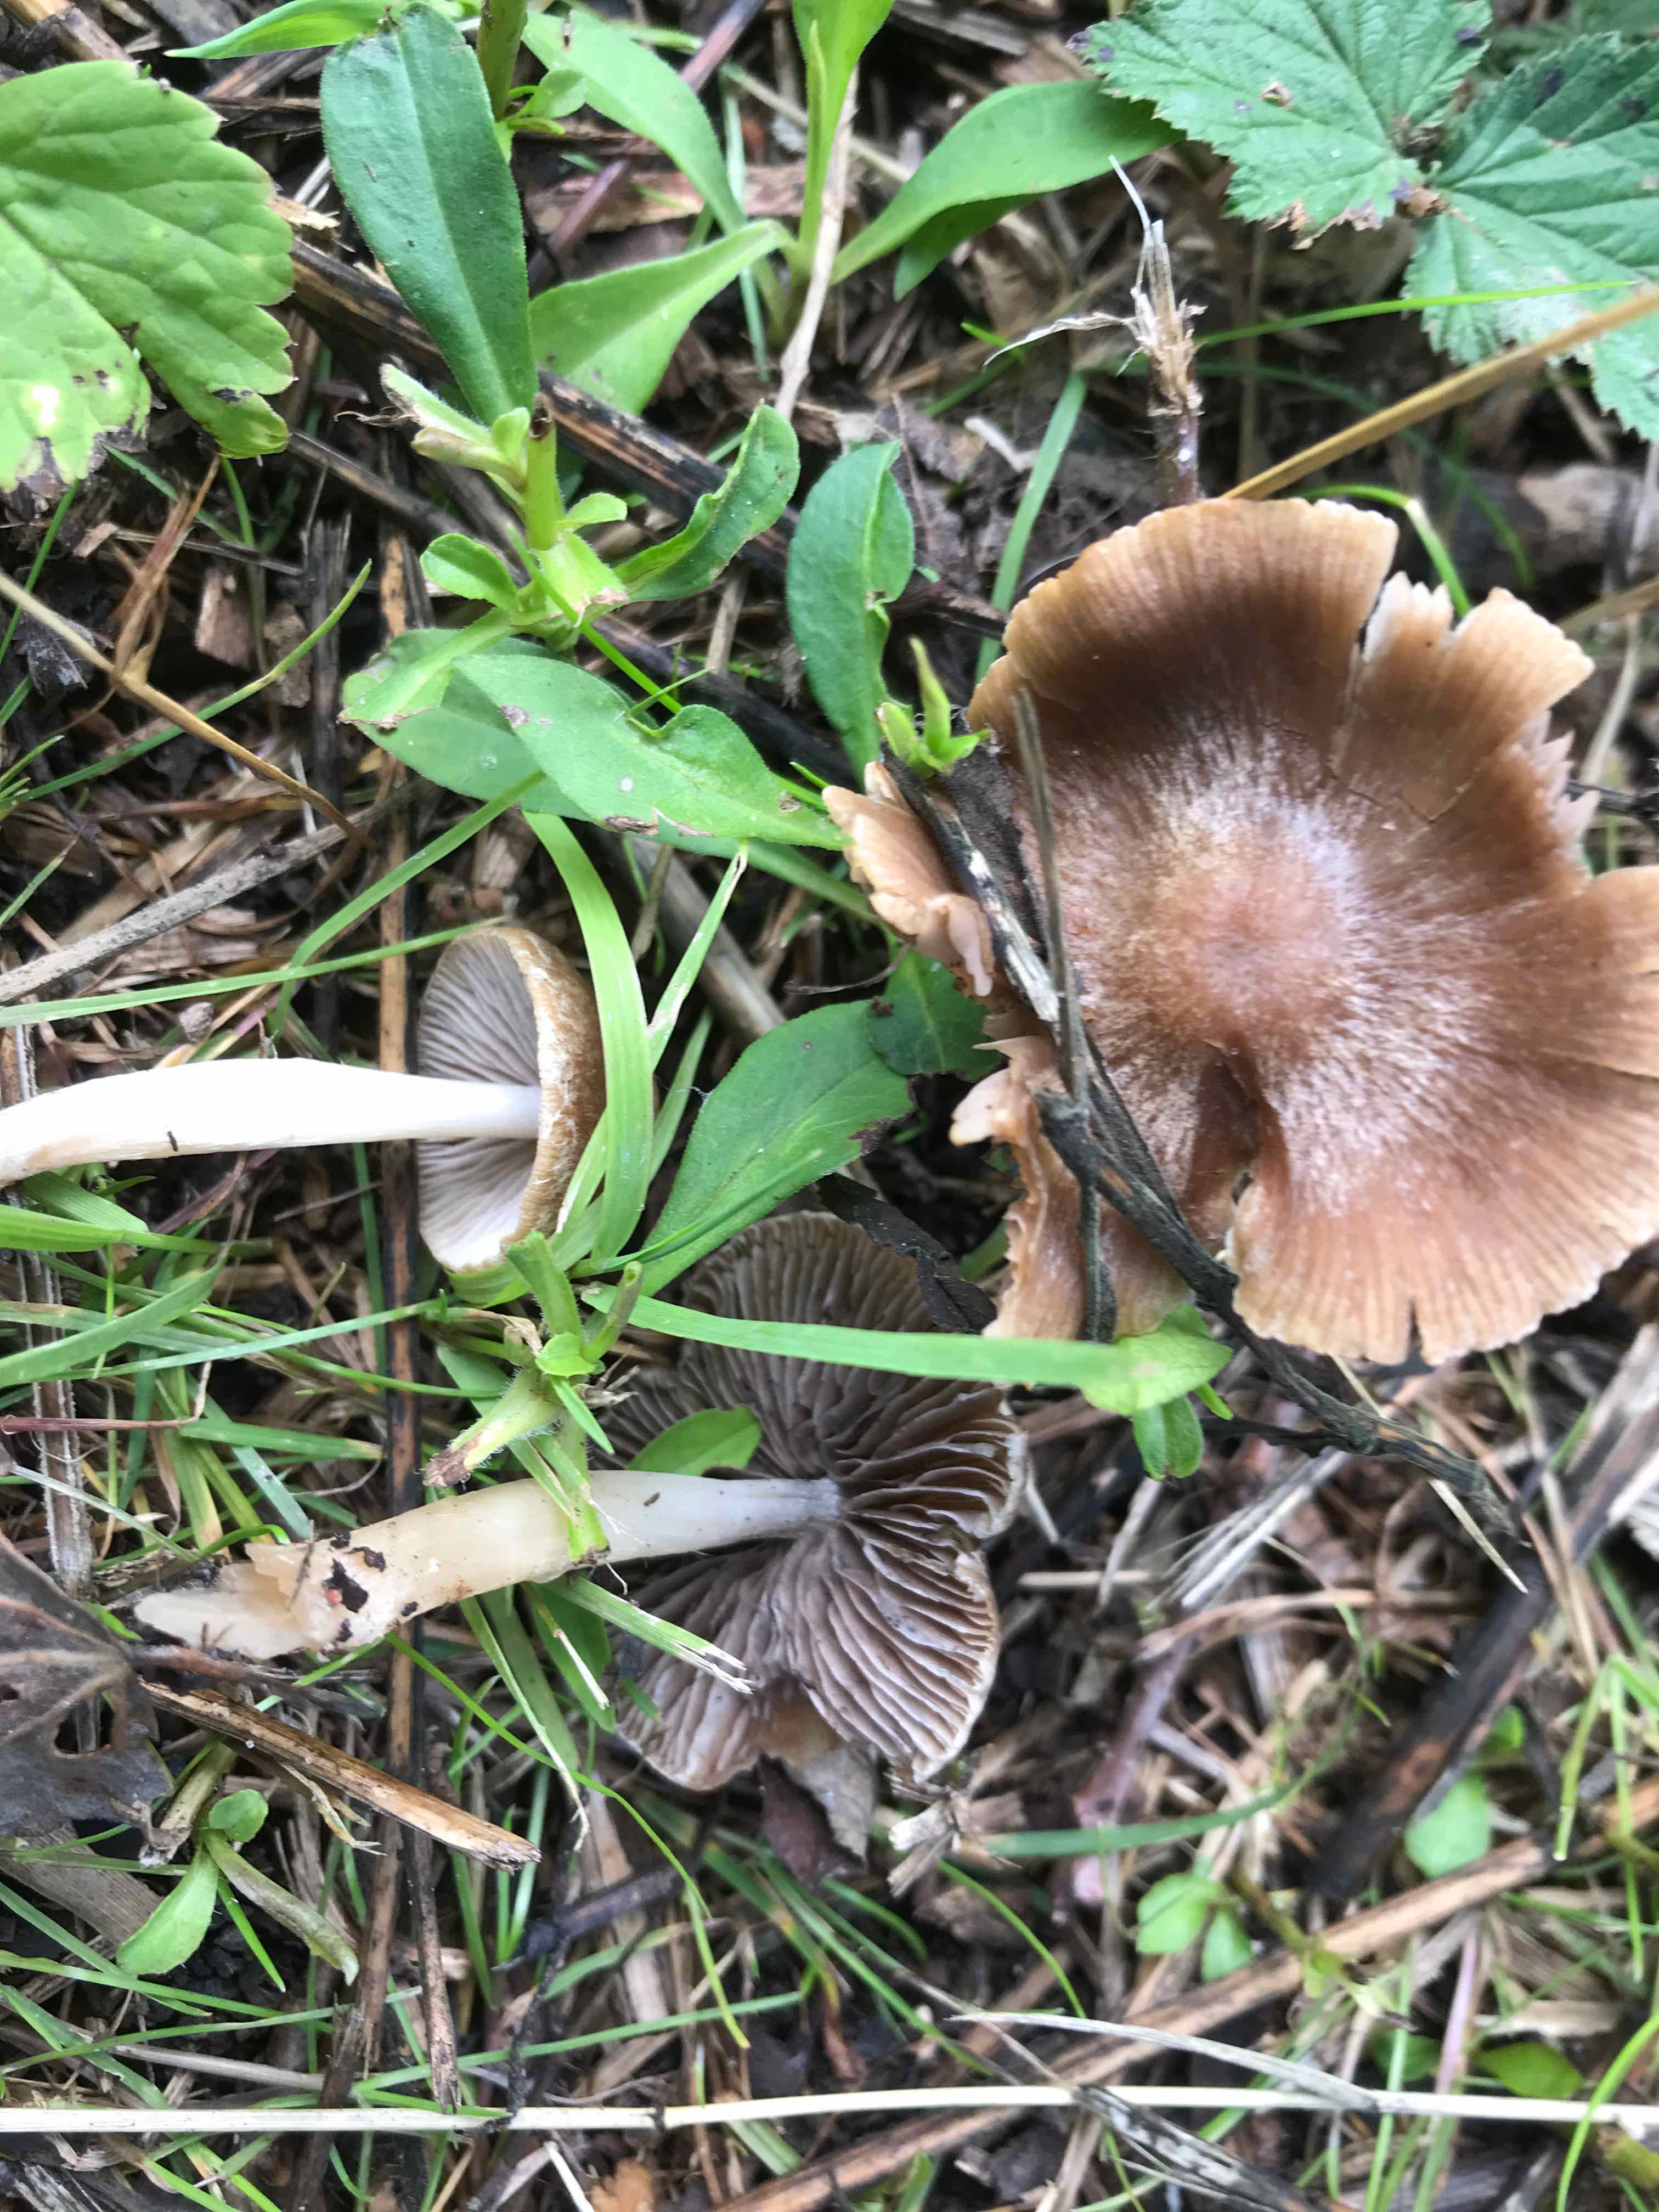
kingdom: Fungi
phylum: Basidiomycota
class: Agaricomycetes
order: Agaricales
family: Psathyrellaceae
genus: Psathyrella
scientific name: Psathyrella
